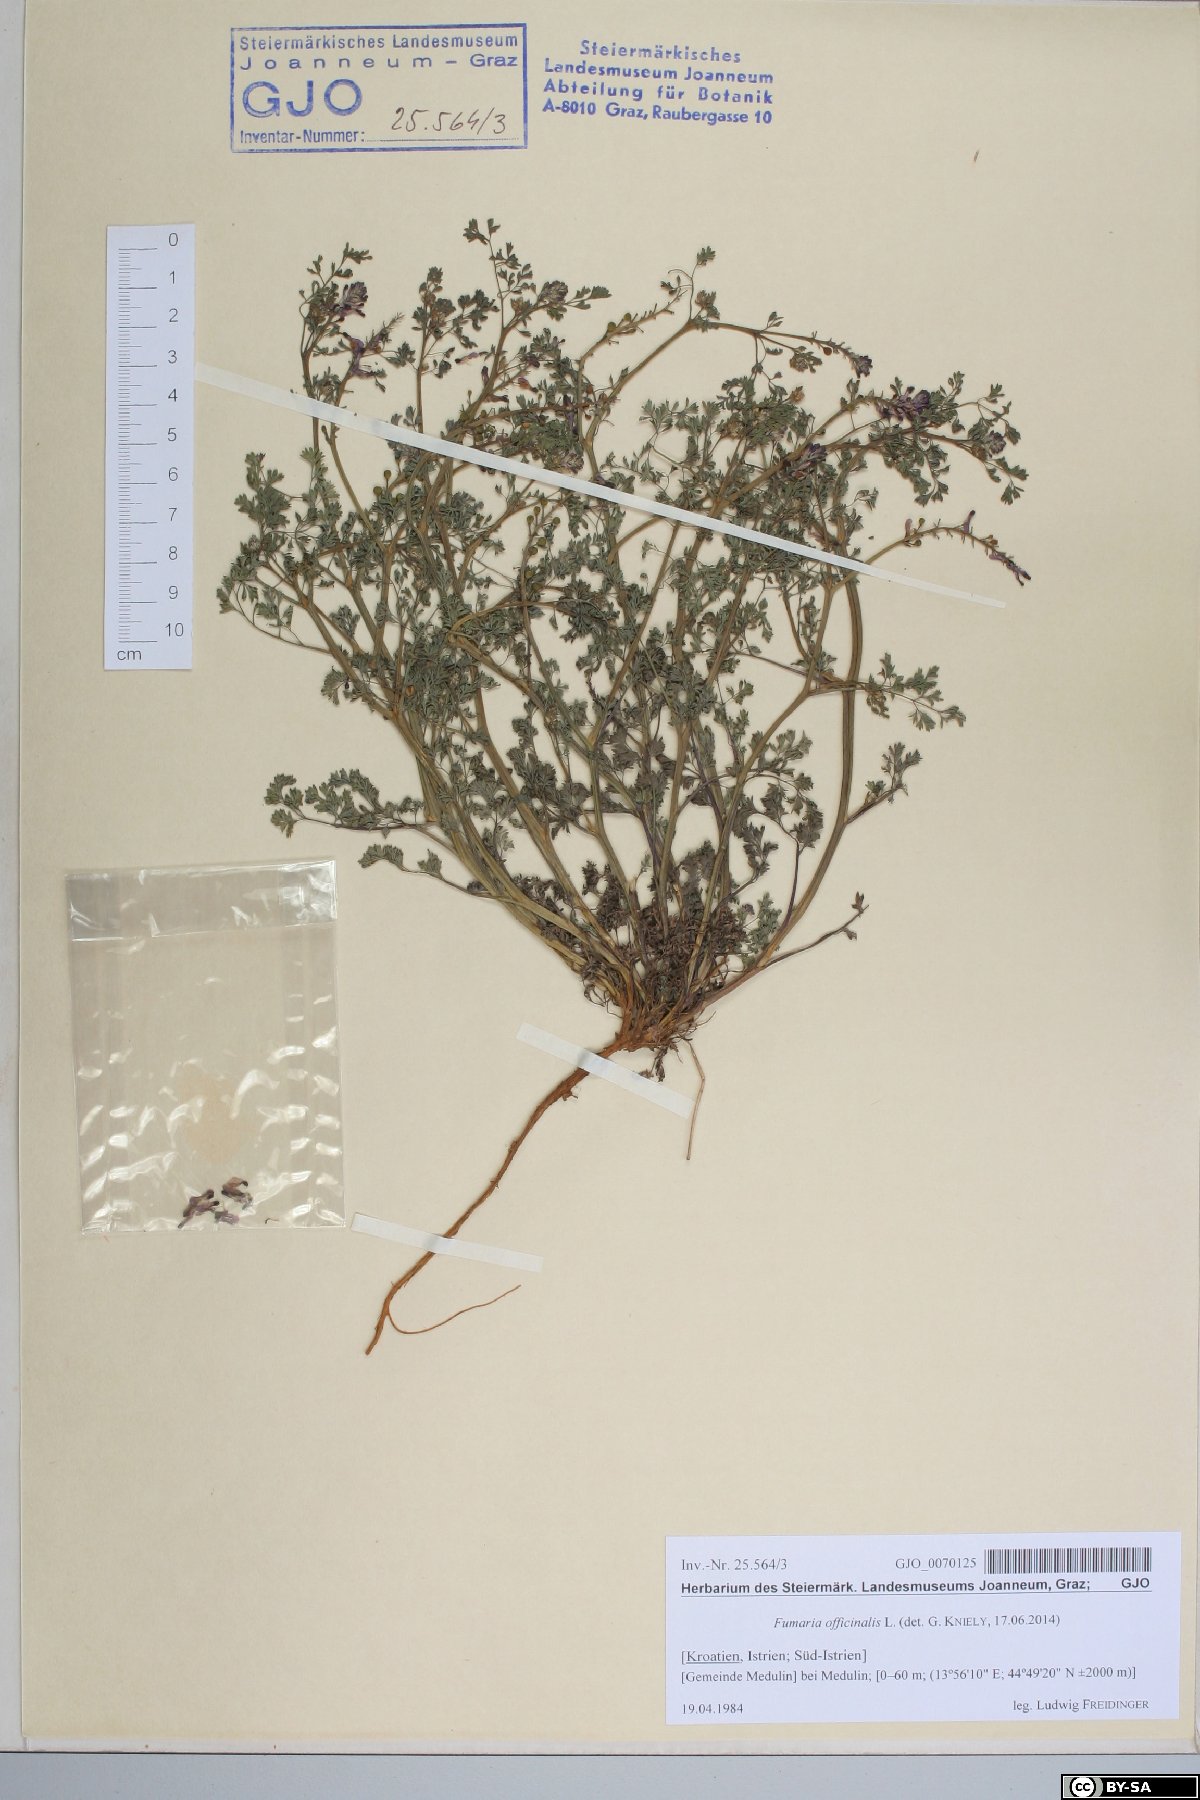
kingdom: Plantae
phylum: Tracheophyta
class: Magnoliopsida
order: Ranunculales
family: Papaveraceae
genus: Fumaria
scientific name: Fumaria officinalis
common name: Common fumitory
